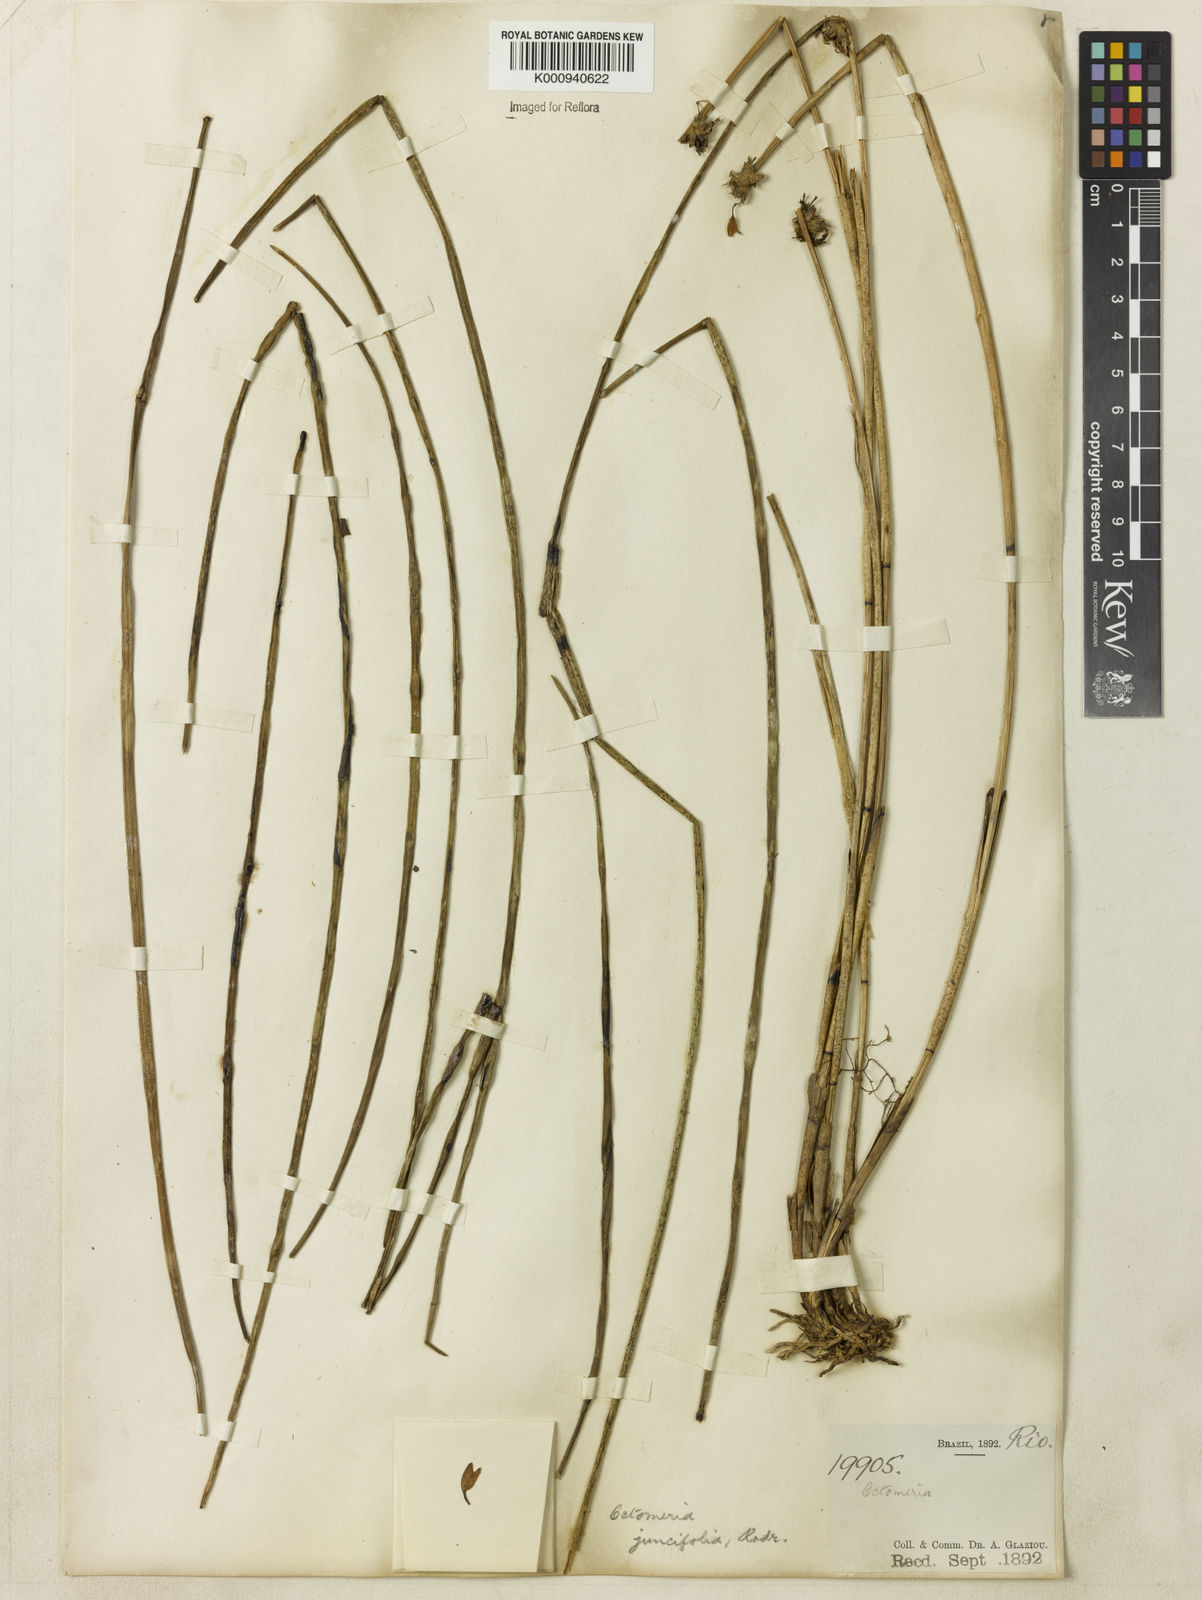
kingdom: Plantae
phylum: Tracheophyta
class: Liliopsida
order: Asparagales
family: Orchidaceae
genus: Octomeria
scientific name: Octomeria juncifolia
